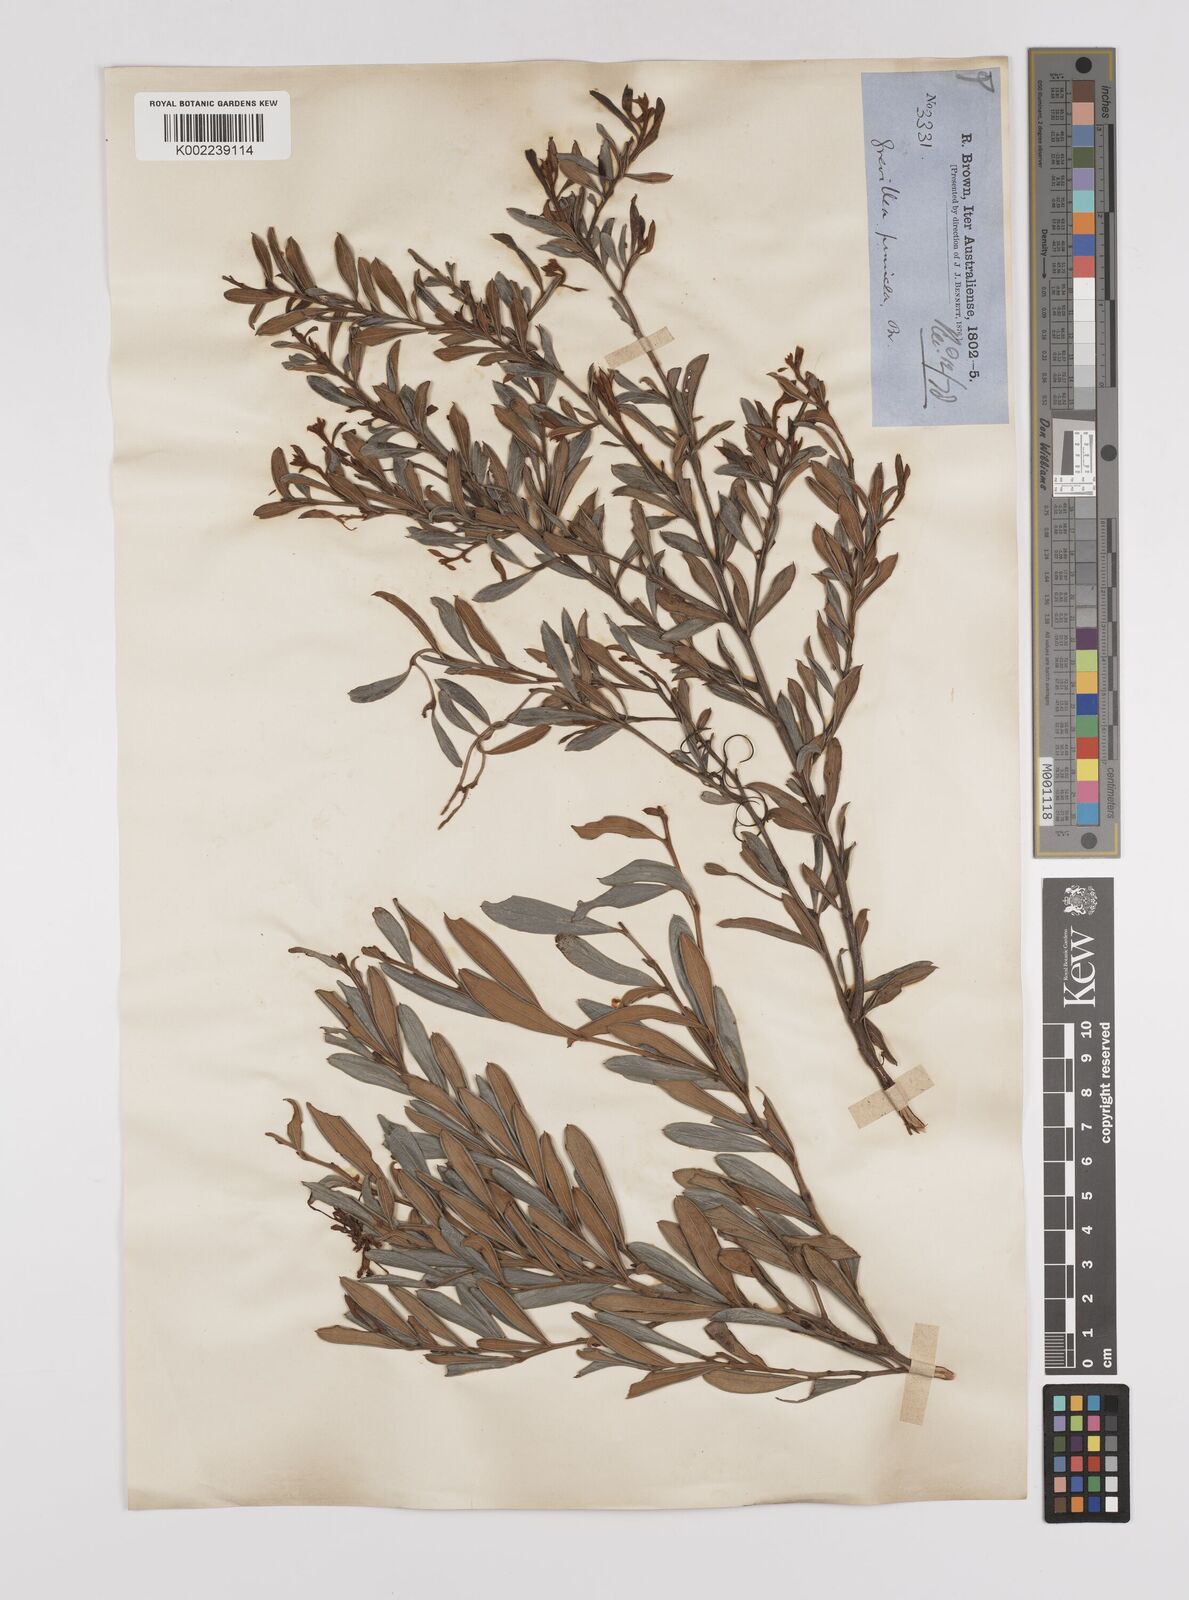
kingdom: Plantae
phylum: Tracheophyta
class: Magnoliopsida
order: Proteales
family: Proteaceae
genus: Grevillea
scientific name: Grevillea speciosa
